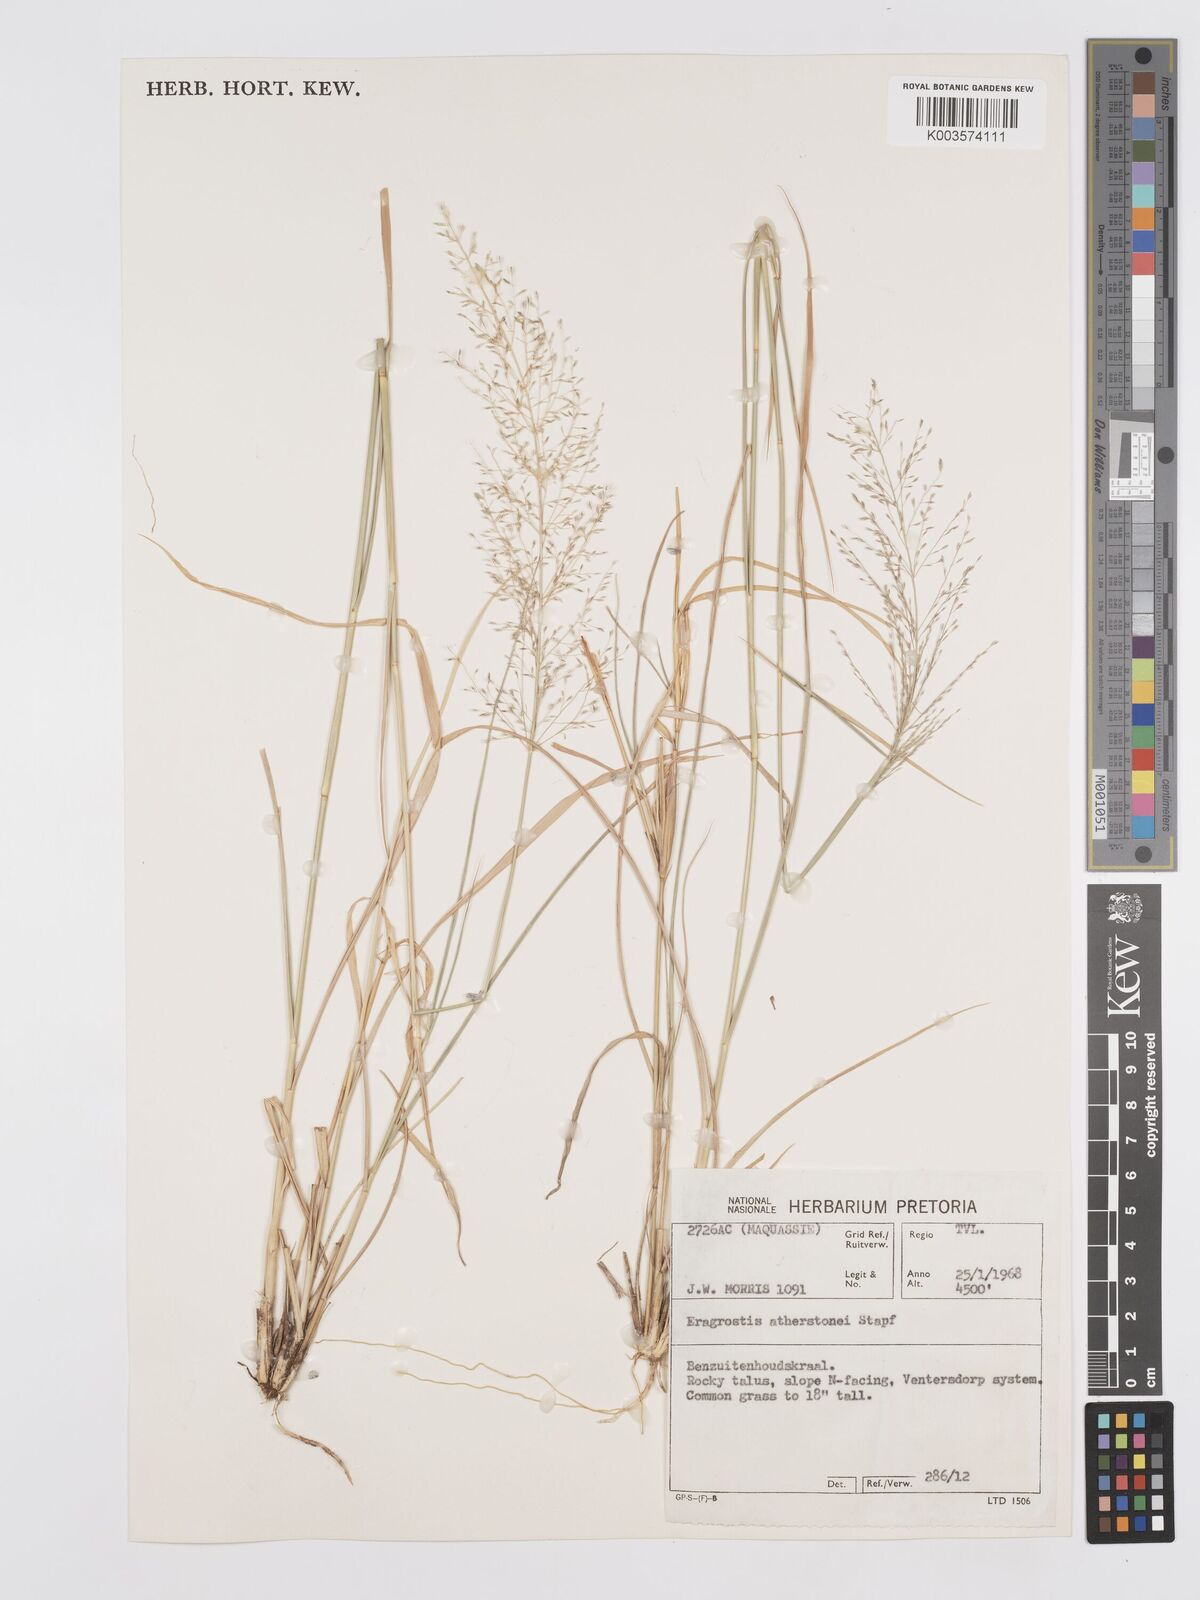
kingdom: Plantae
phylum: Tracheophyta
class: Liliopsida
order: Poales
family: Poaceae
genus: Eragrostis
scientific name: Eragrostis cylindriflora
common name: Cylinderflower lovegrass
